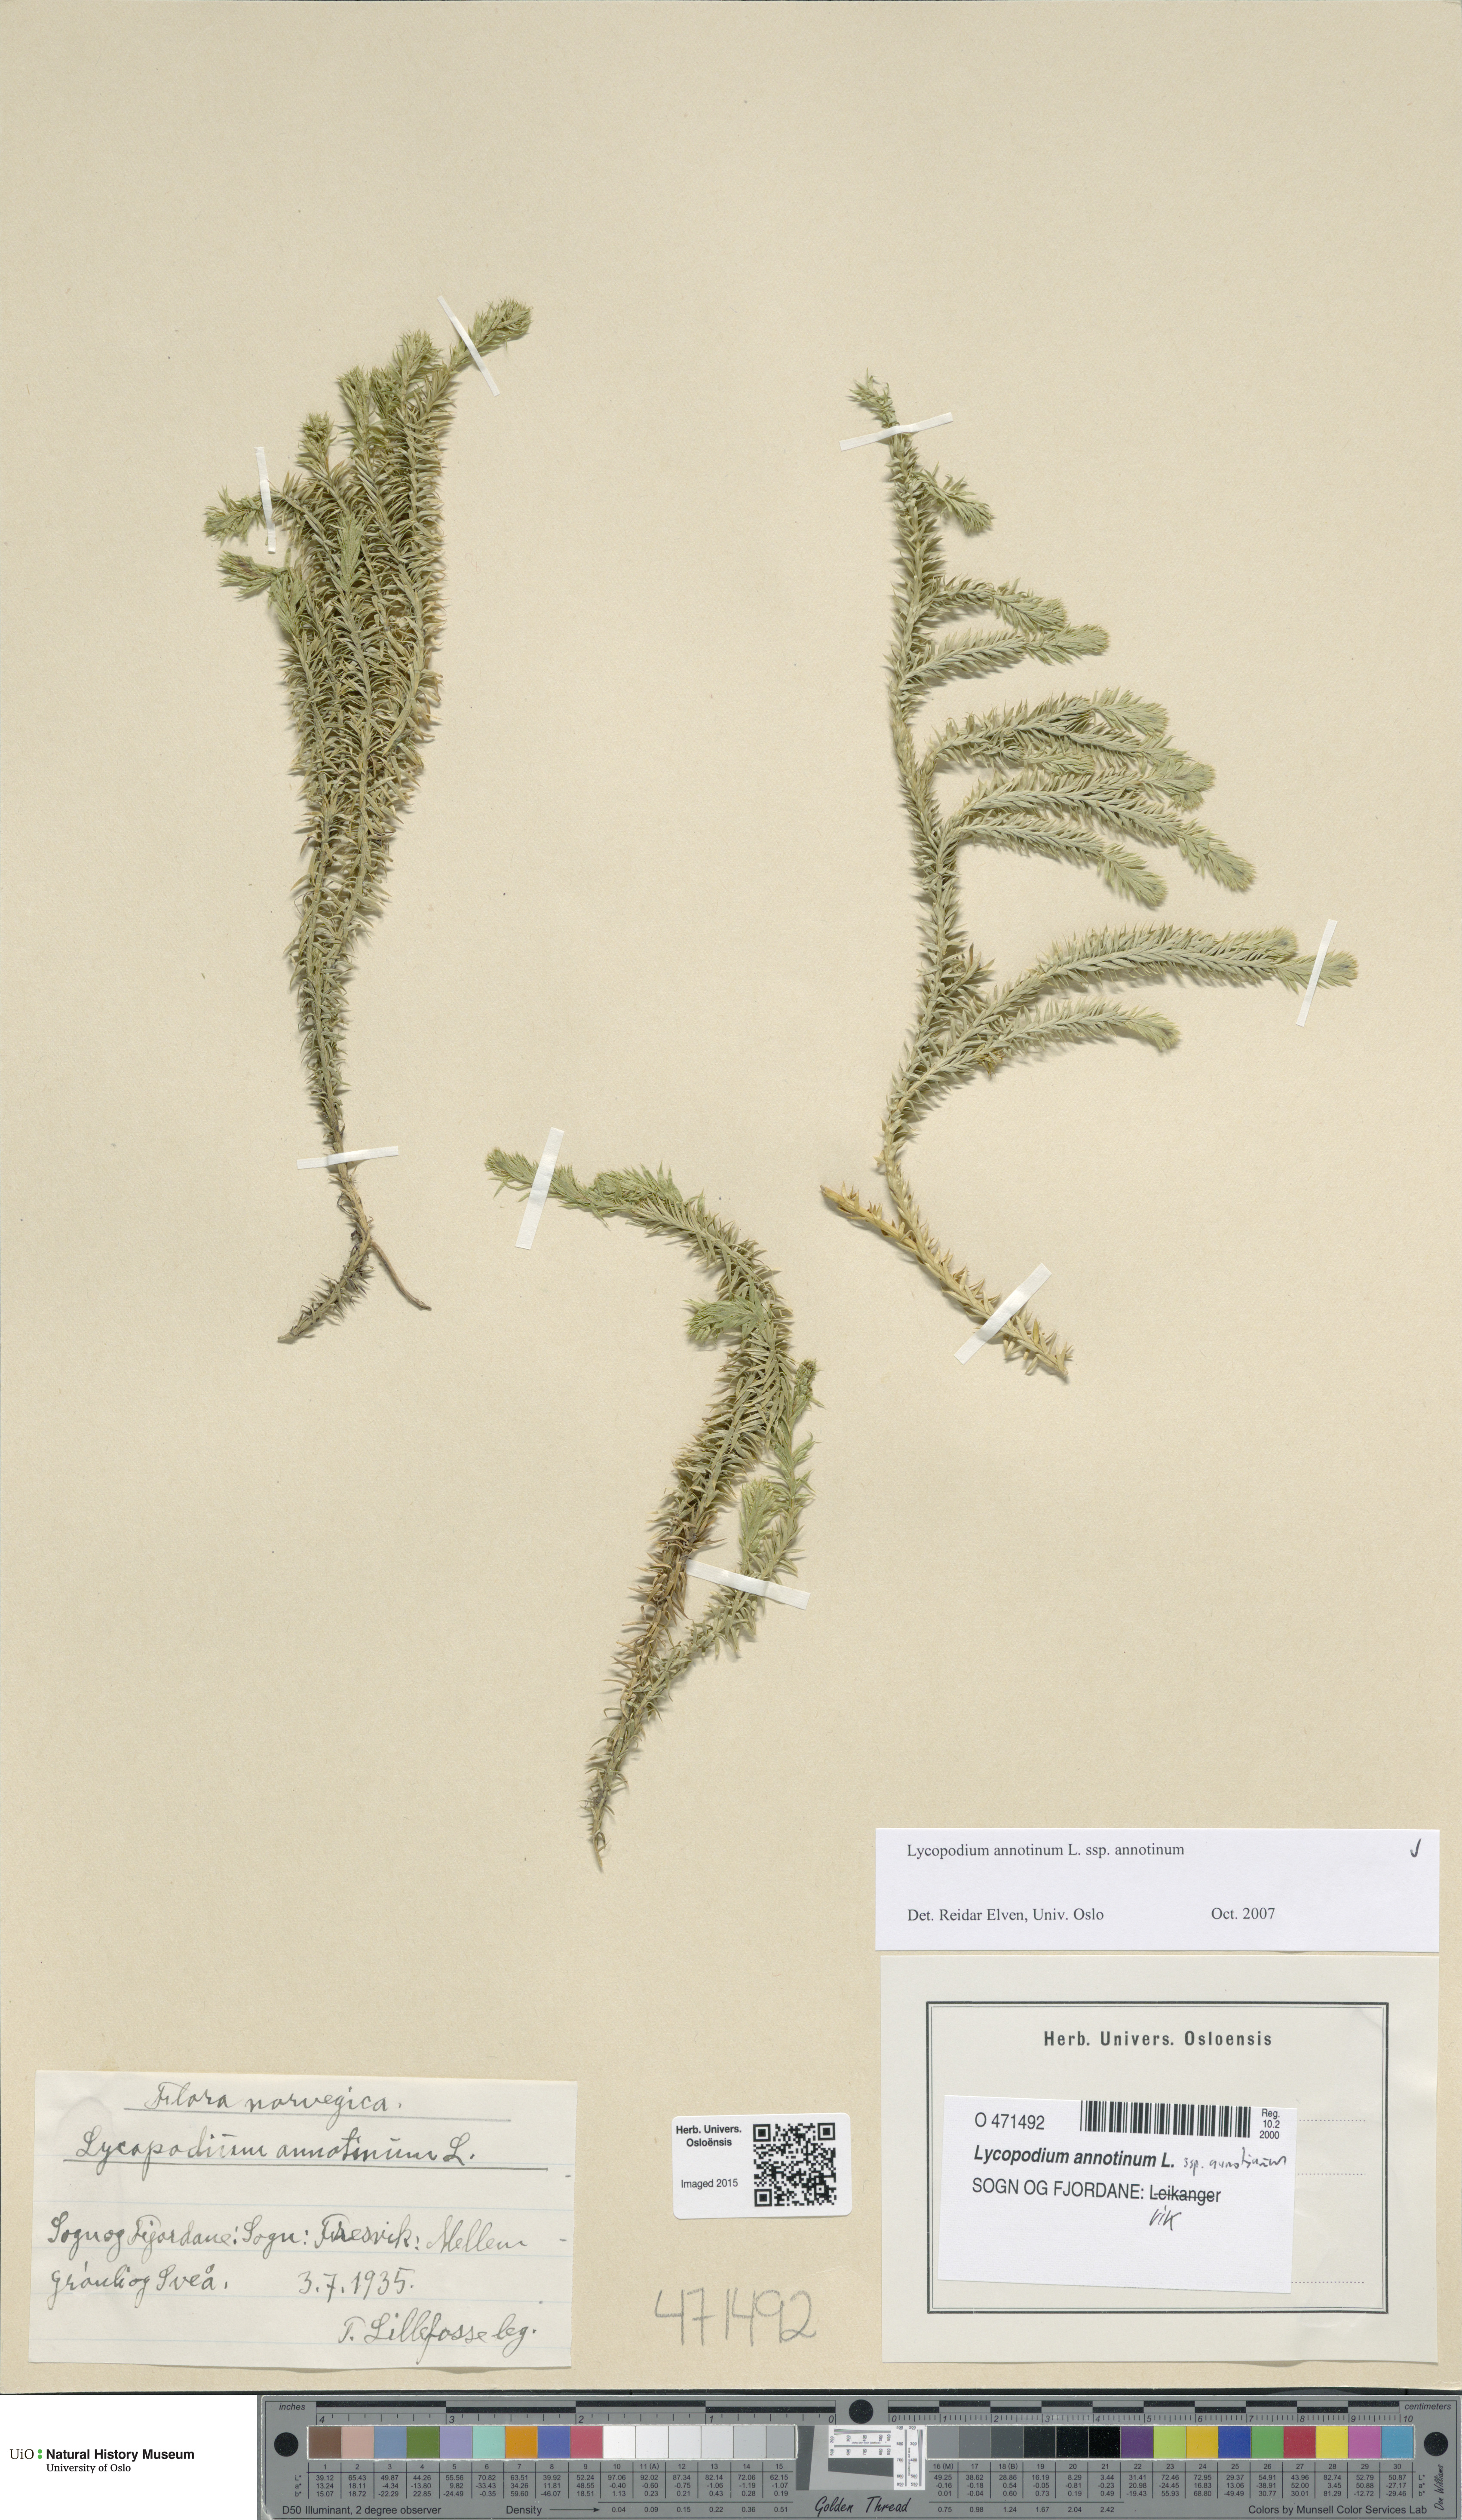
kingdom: Plantae
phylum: Tracheophyta
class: Lycopodiopsida
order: Lycopodiales
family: Lycopodiaceae
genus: Spinulum
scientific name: Spinulum annotinum
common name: Interrupted club-moss
